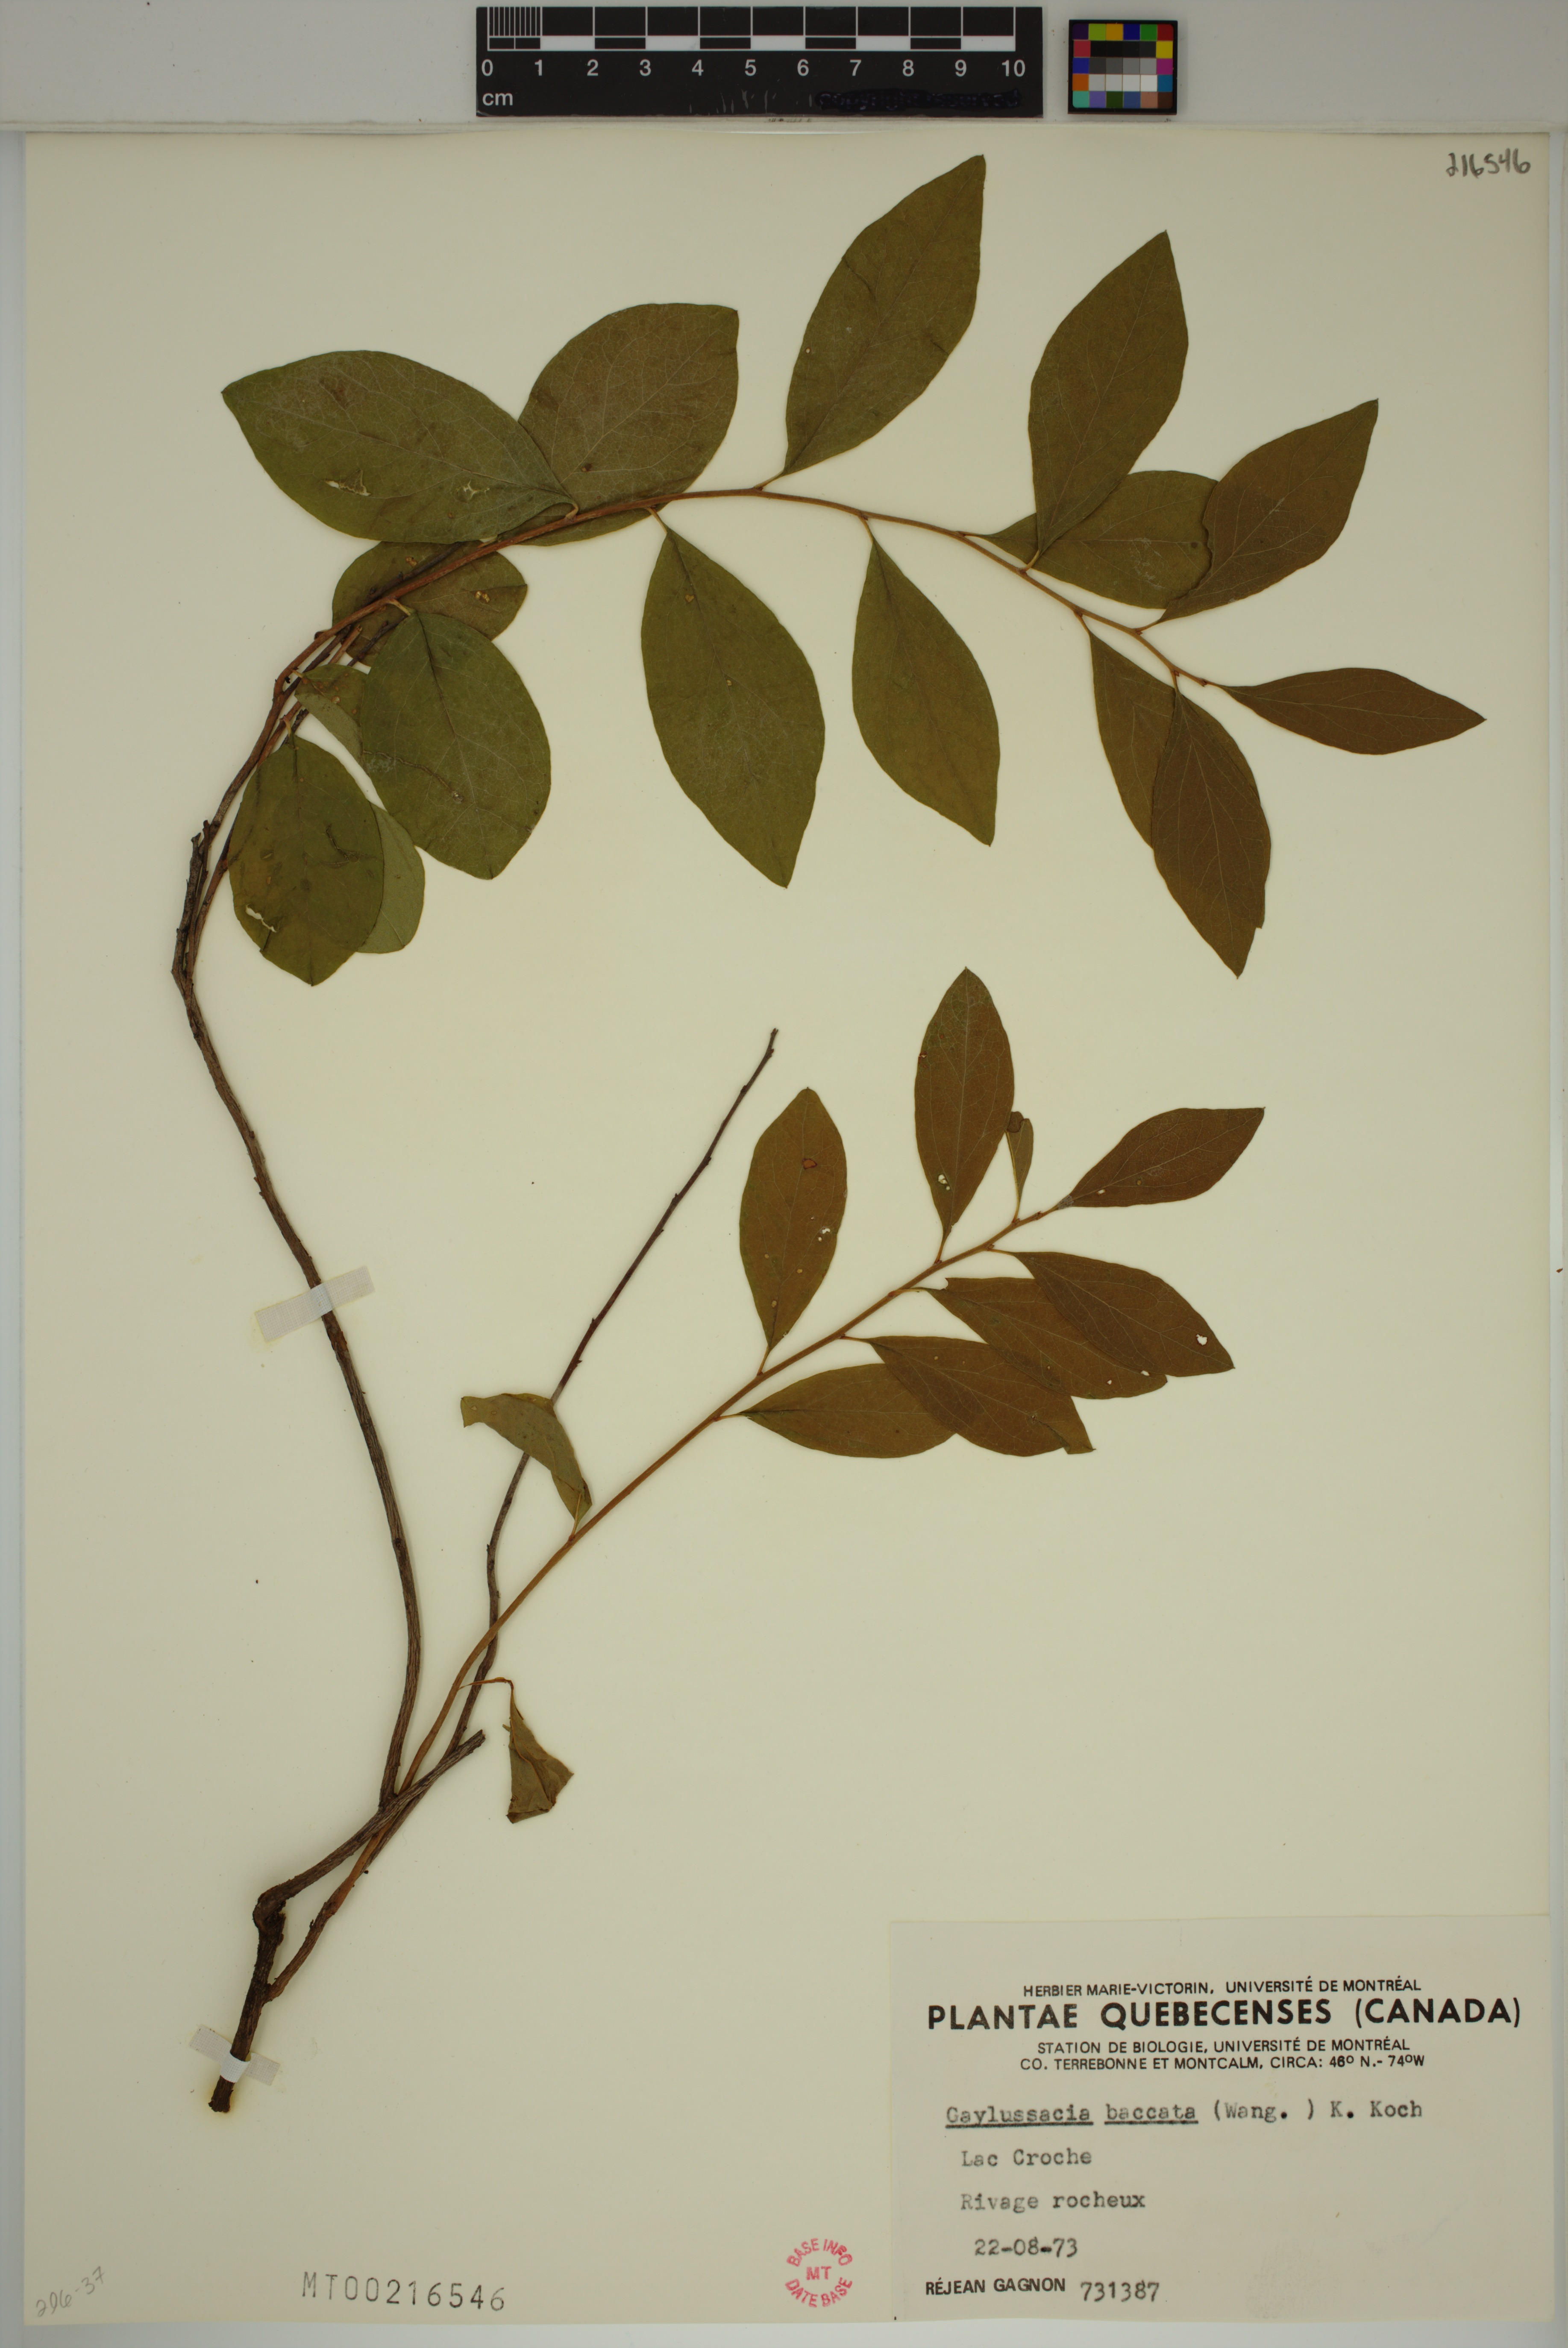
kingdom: Plantae
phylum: Tracheophyta
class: Magnoliopsida
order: Ericales
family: Ericaceae
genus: Gaylussacia
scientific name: Gaylussacia baccata
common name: Black huckleberry
